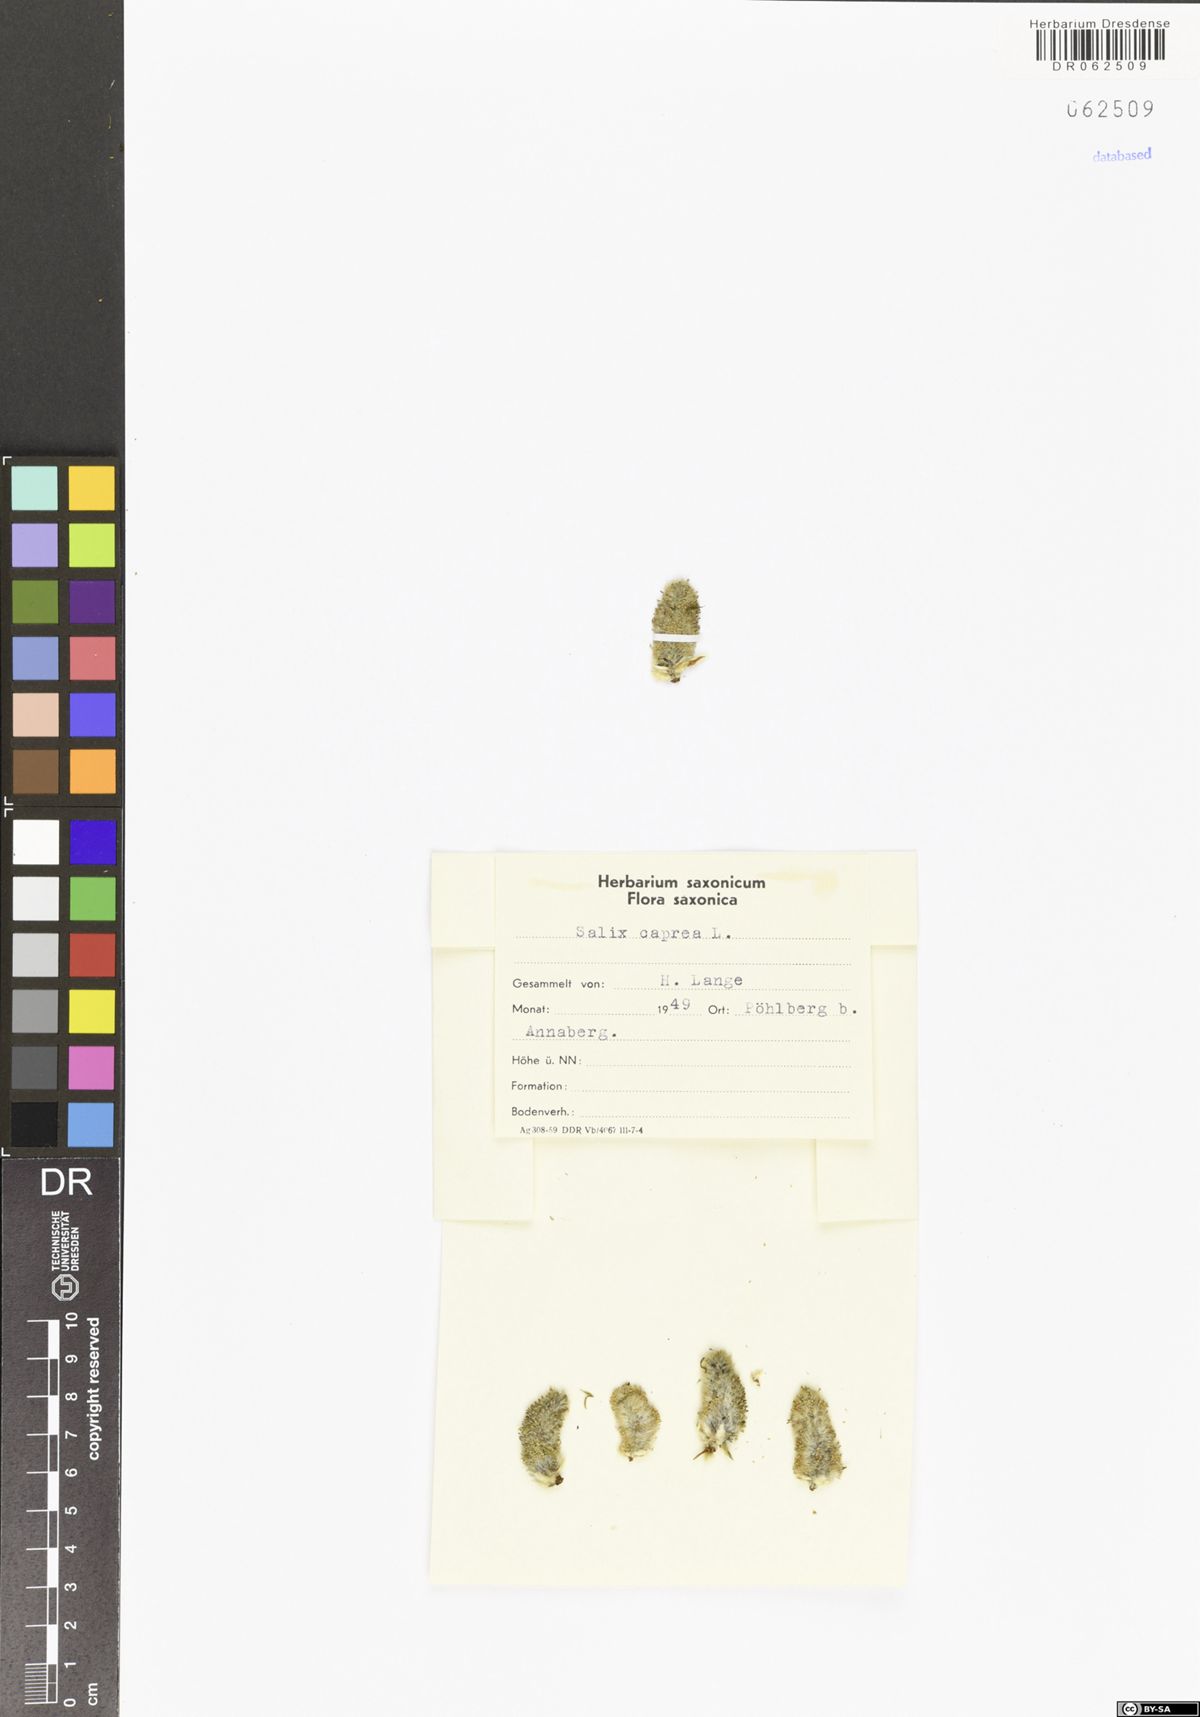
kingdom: Plantae
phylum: Tracheophyta
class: Magnoliopsida
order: Malpighiales
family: Salicaceae
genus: Salix
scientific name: Salix caprea
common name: Goat willow
